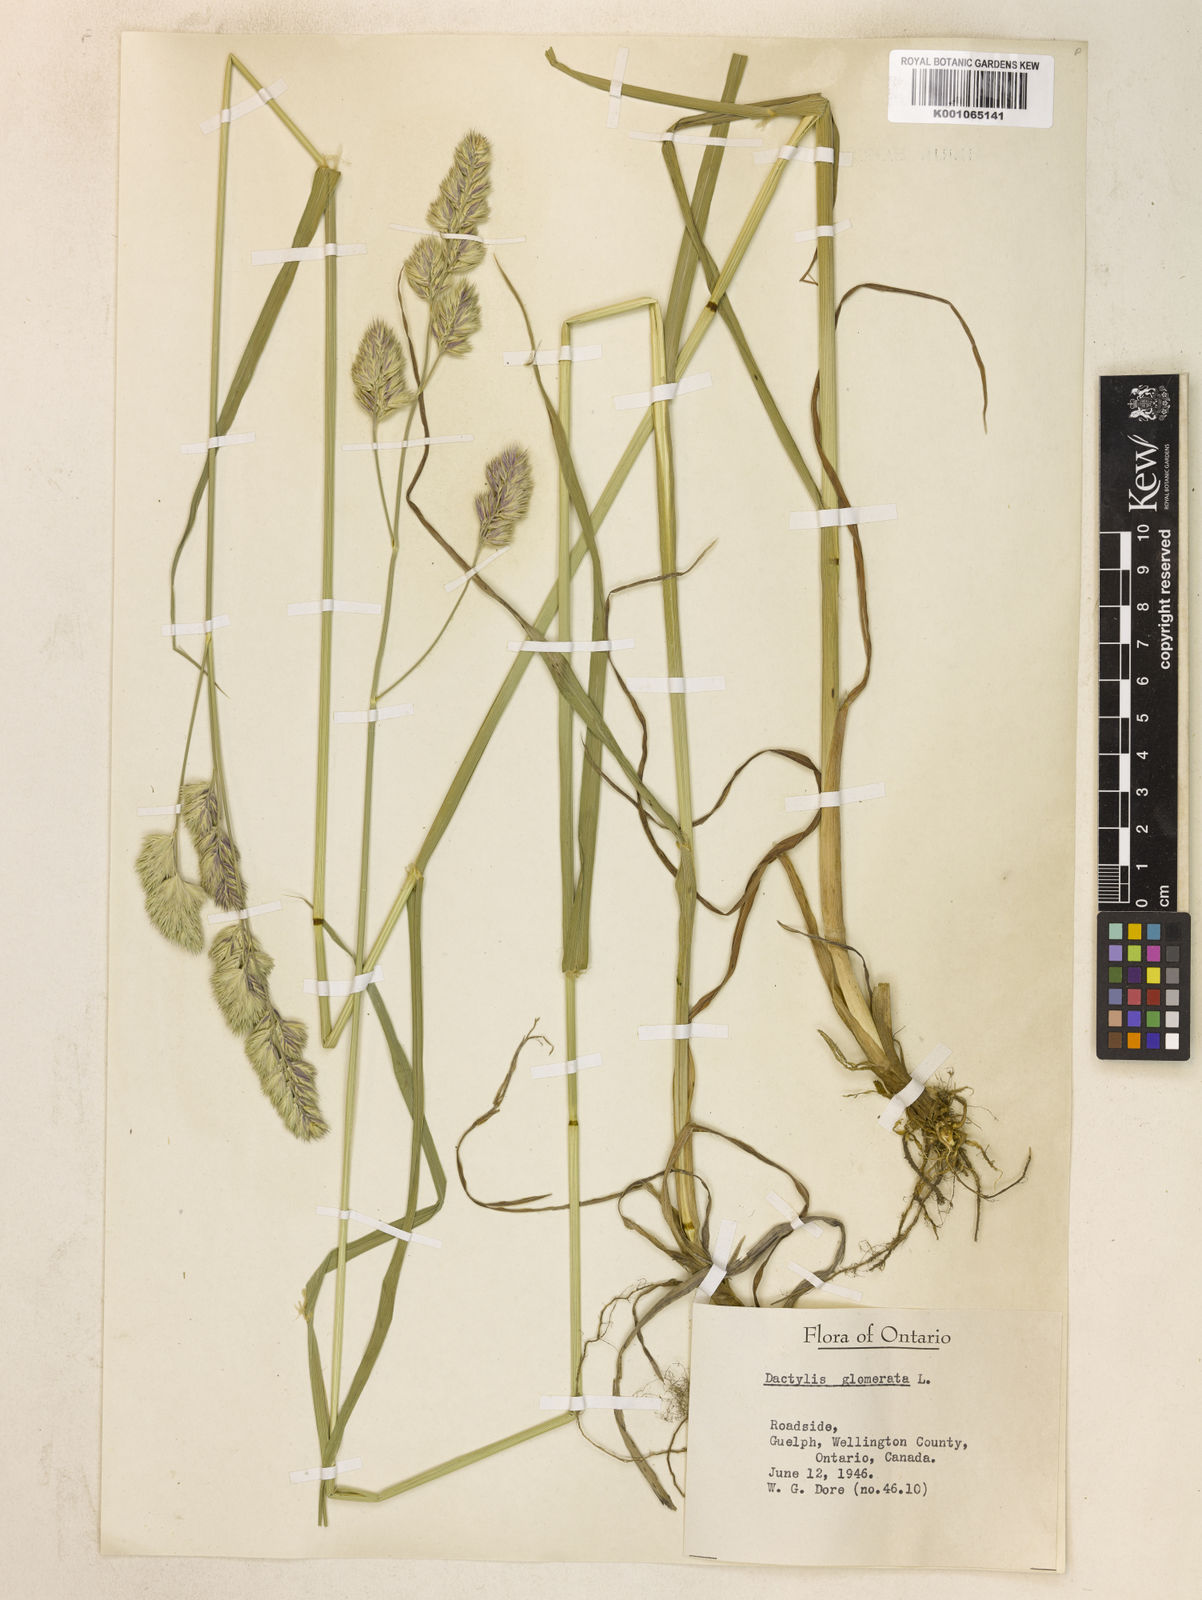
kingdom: Plantae
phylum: Tracheophyta
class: Liliopsida
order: Poales
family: Poaceae
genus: Dactylis
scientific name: Dactylis glomerata
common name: Orchardgrass
